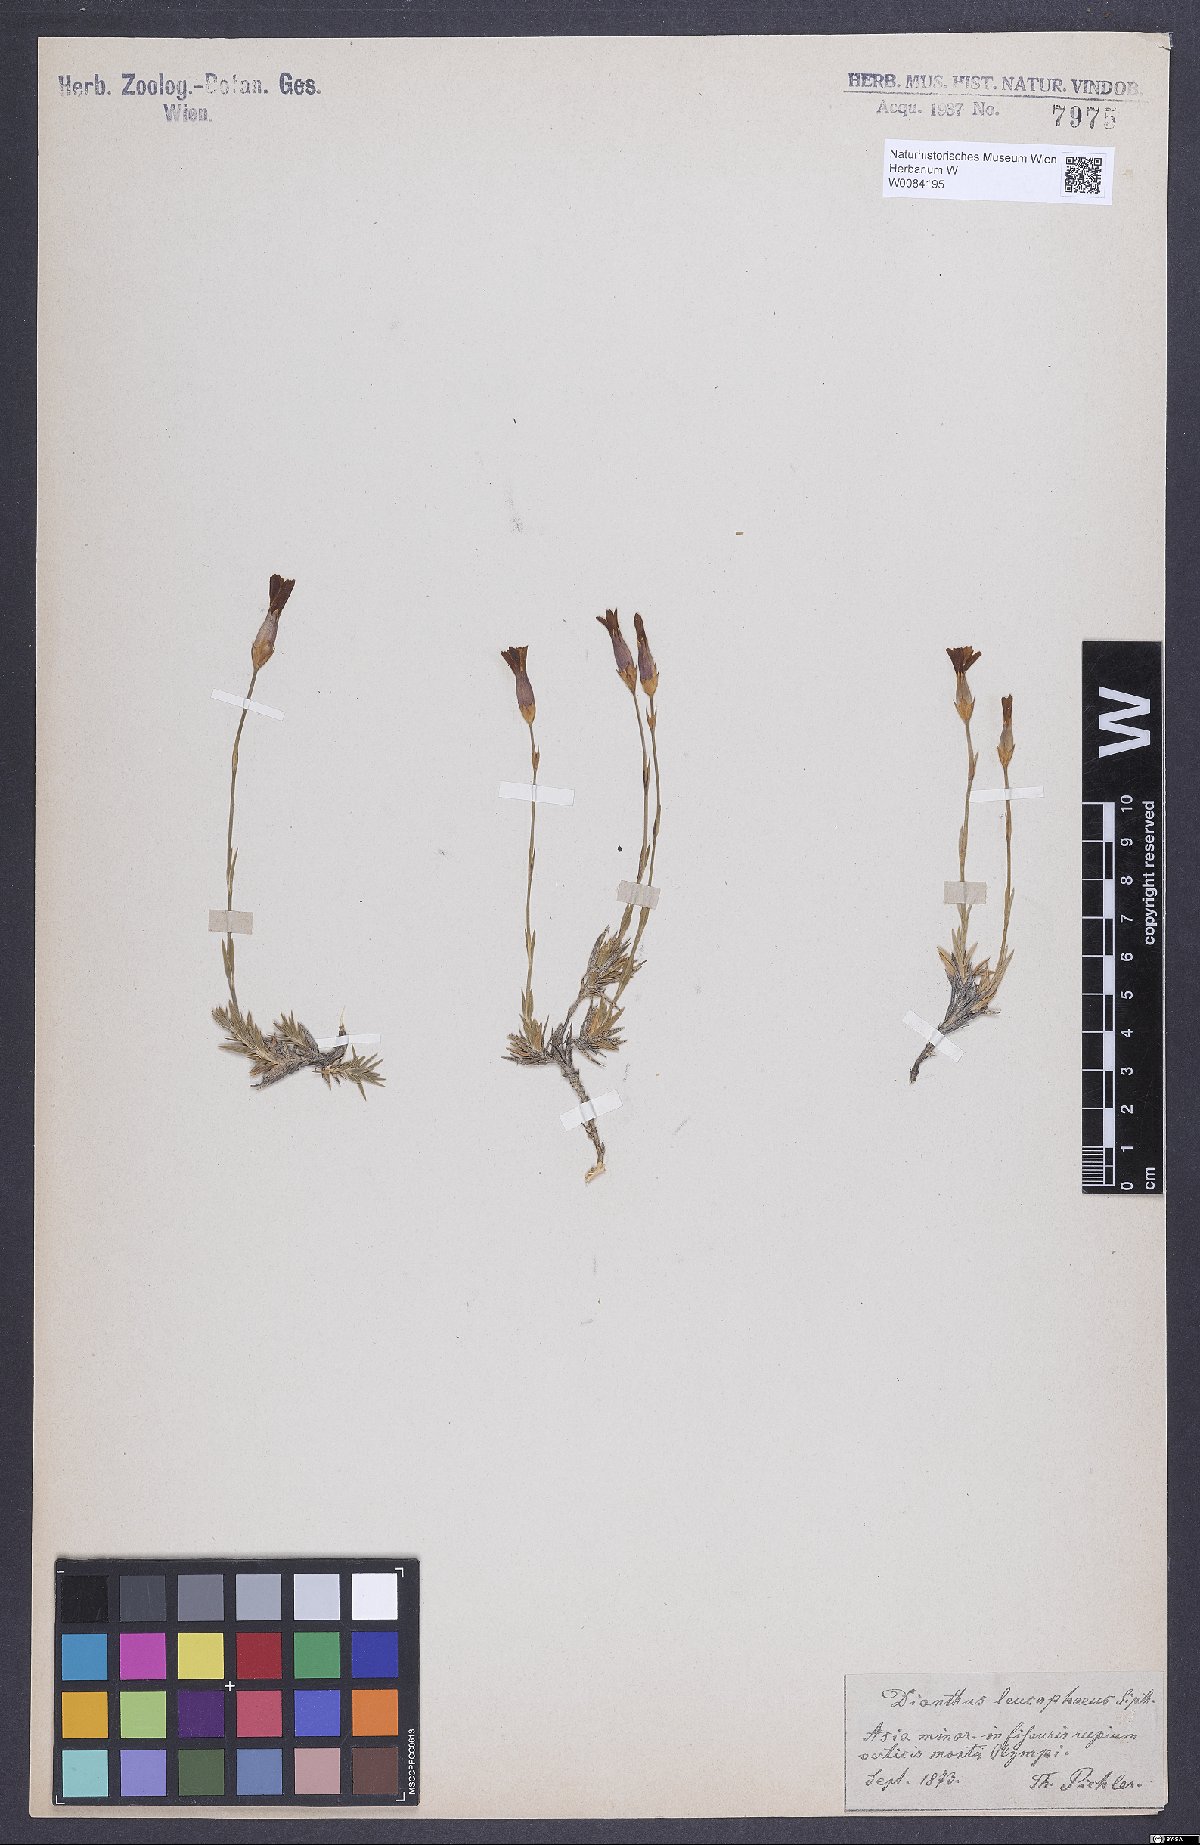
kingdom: Plantae
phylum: Tracheophyta
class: Magnoliopsida
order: Caryophyllales
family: Caryophyllaceae
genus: Dianthus
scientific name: Dianthus leucophaeus
